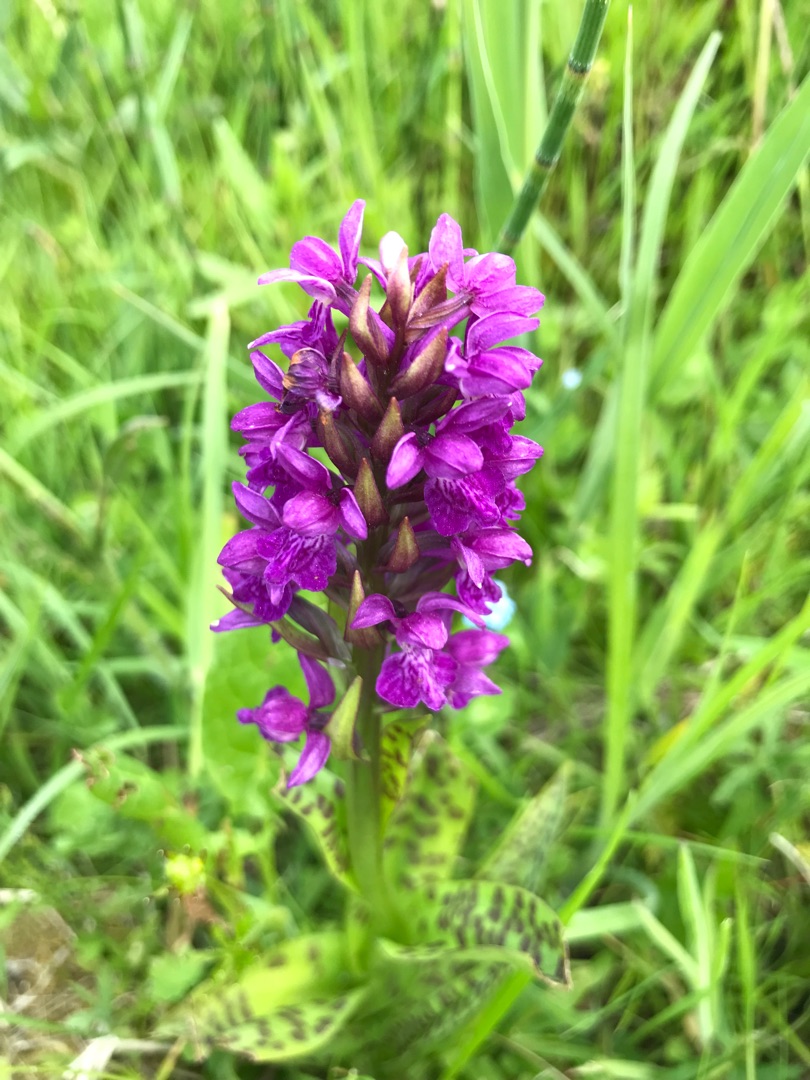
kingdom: Plantae
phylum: Tracheophyta
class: Liliopsida
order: Asparagales
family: Orchidaceae
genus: Dactylorhiza
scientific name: Dactylorhiza majalis
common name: Maj-gøgeurt
